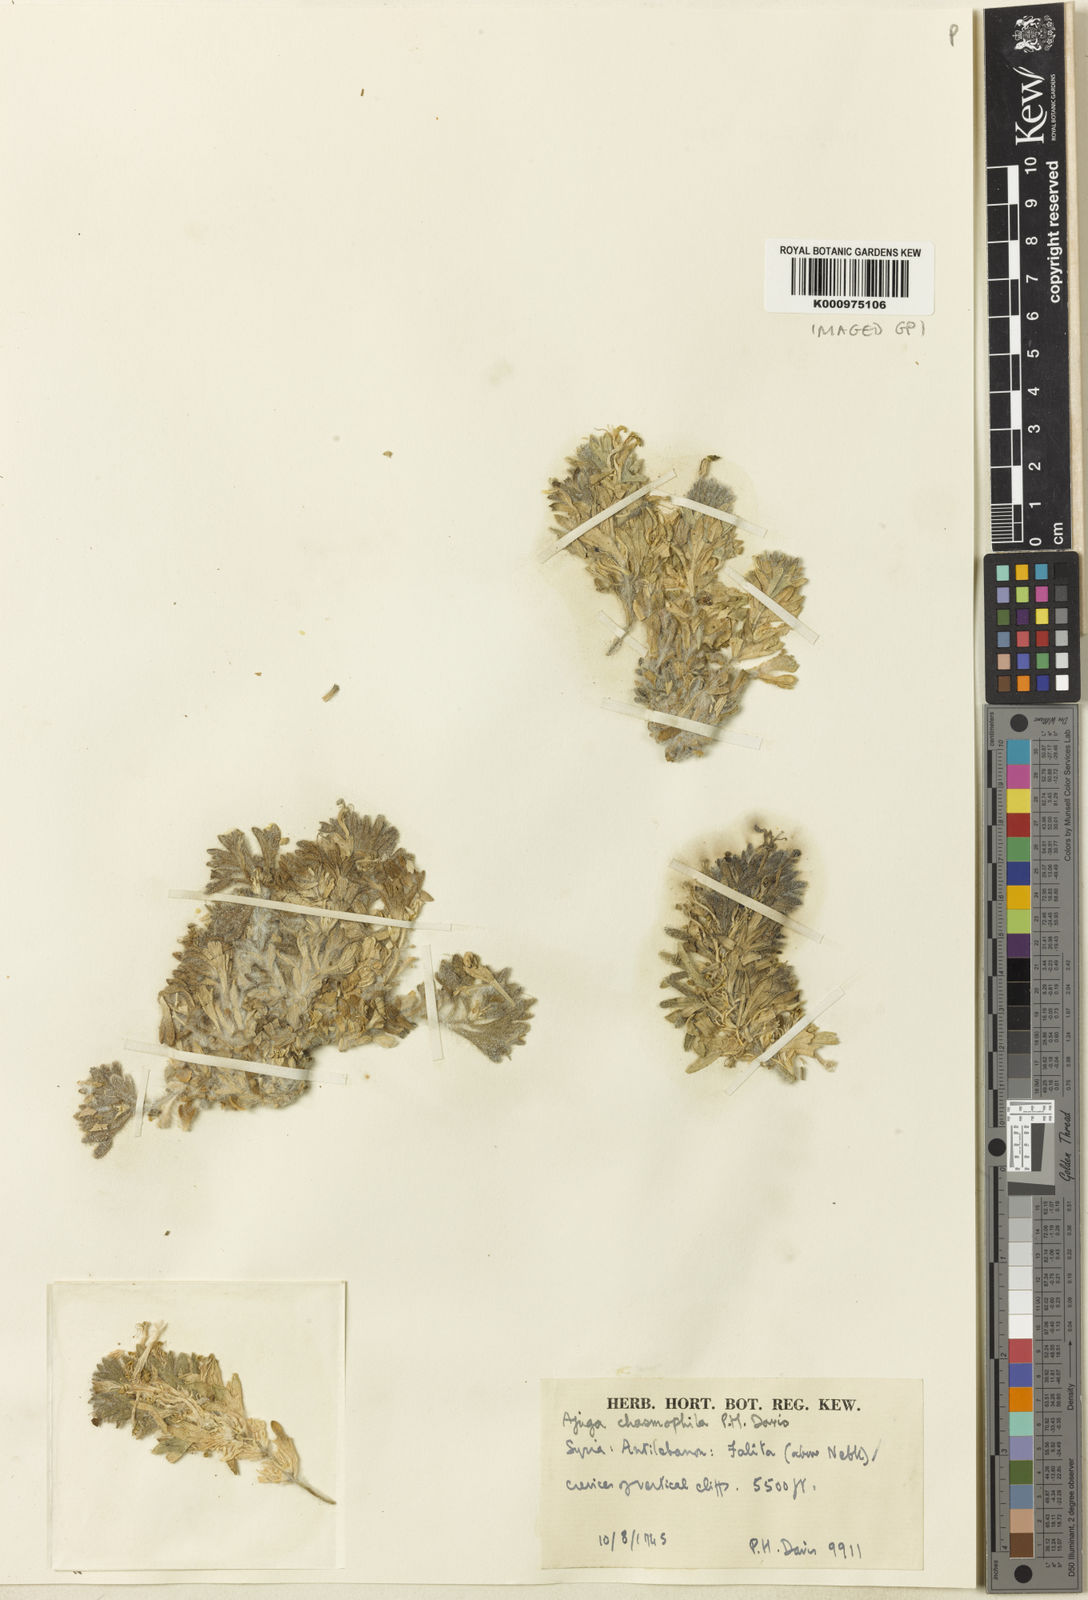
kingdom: Plantae
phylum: Tracheophyta
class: Magnoliopsida
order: Lamiales
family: Lamiaceae
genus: Ajuga
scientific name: Ajuga chasmophila
